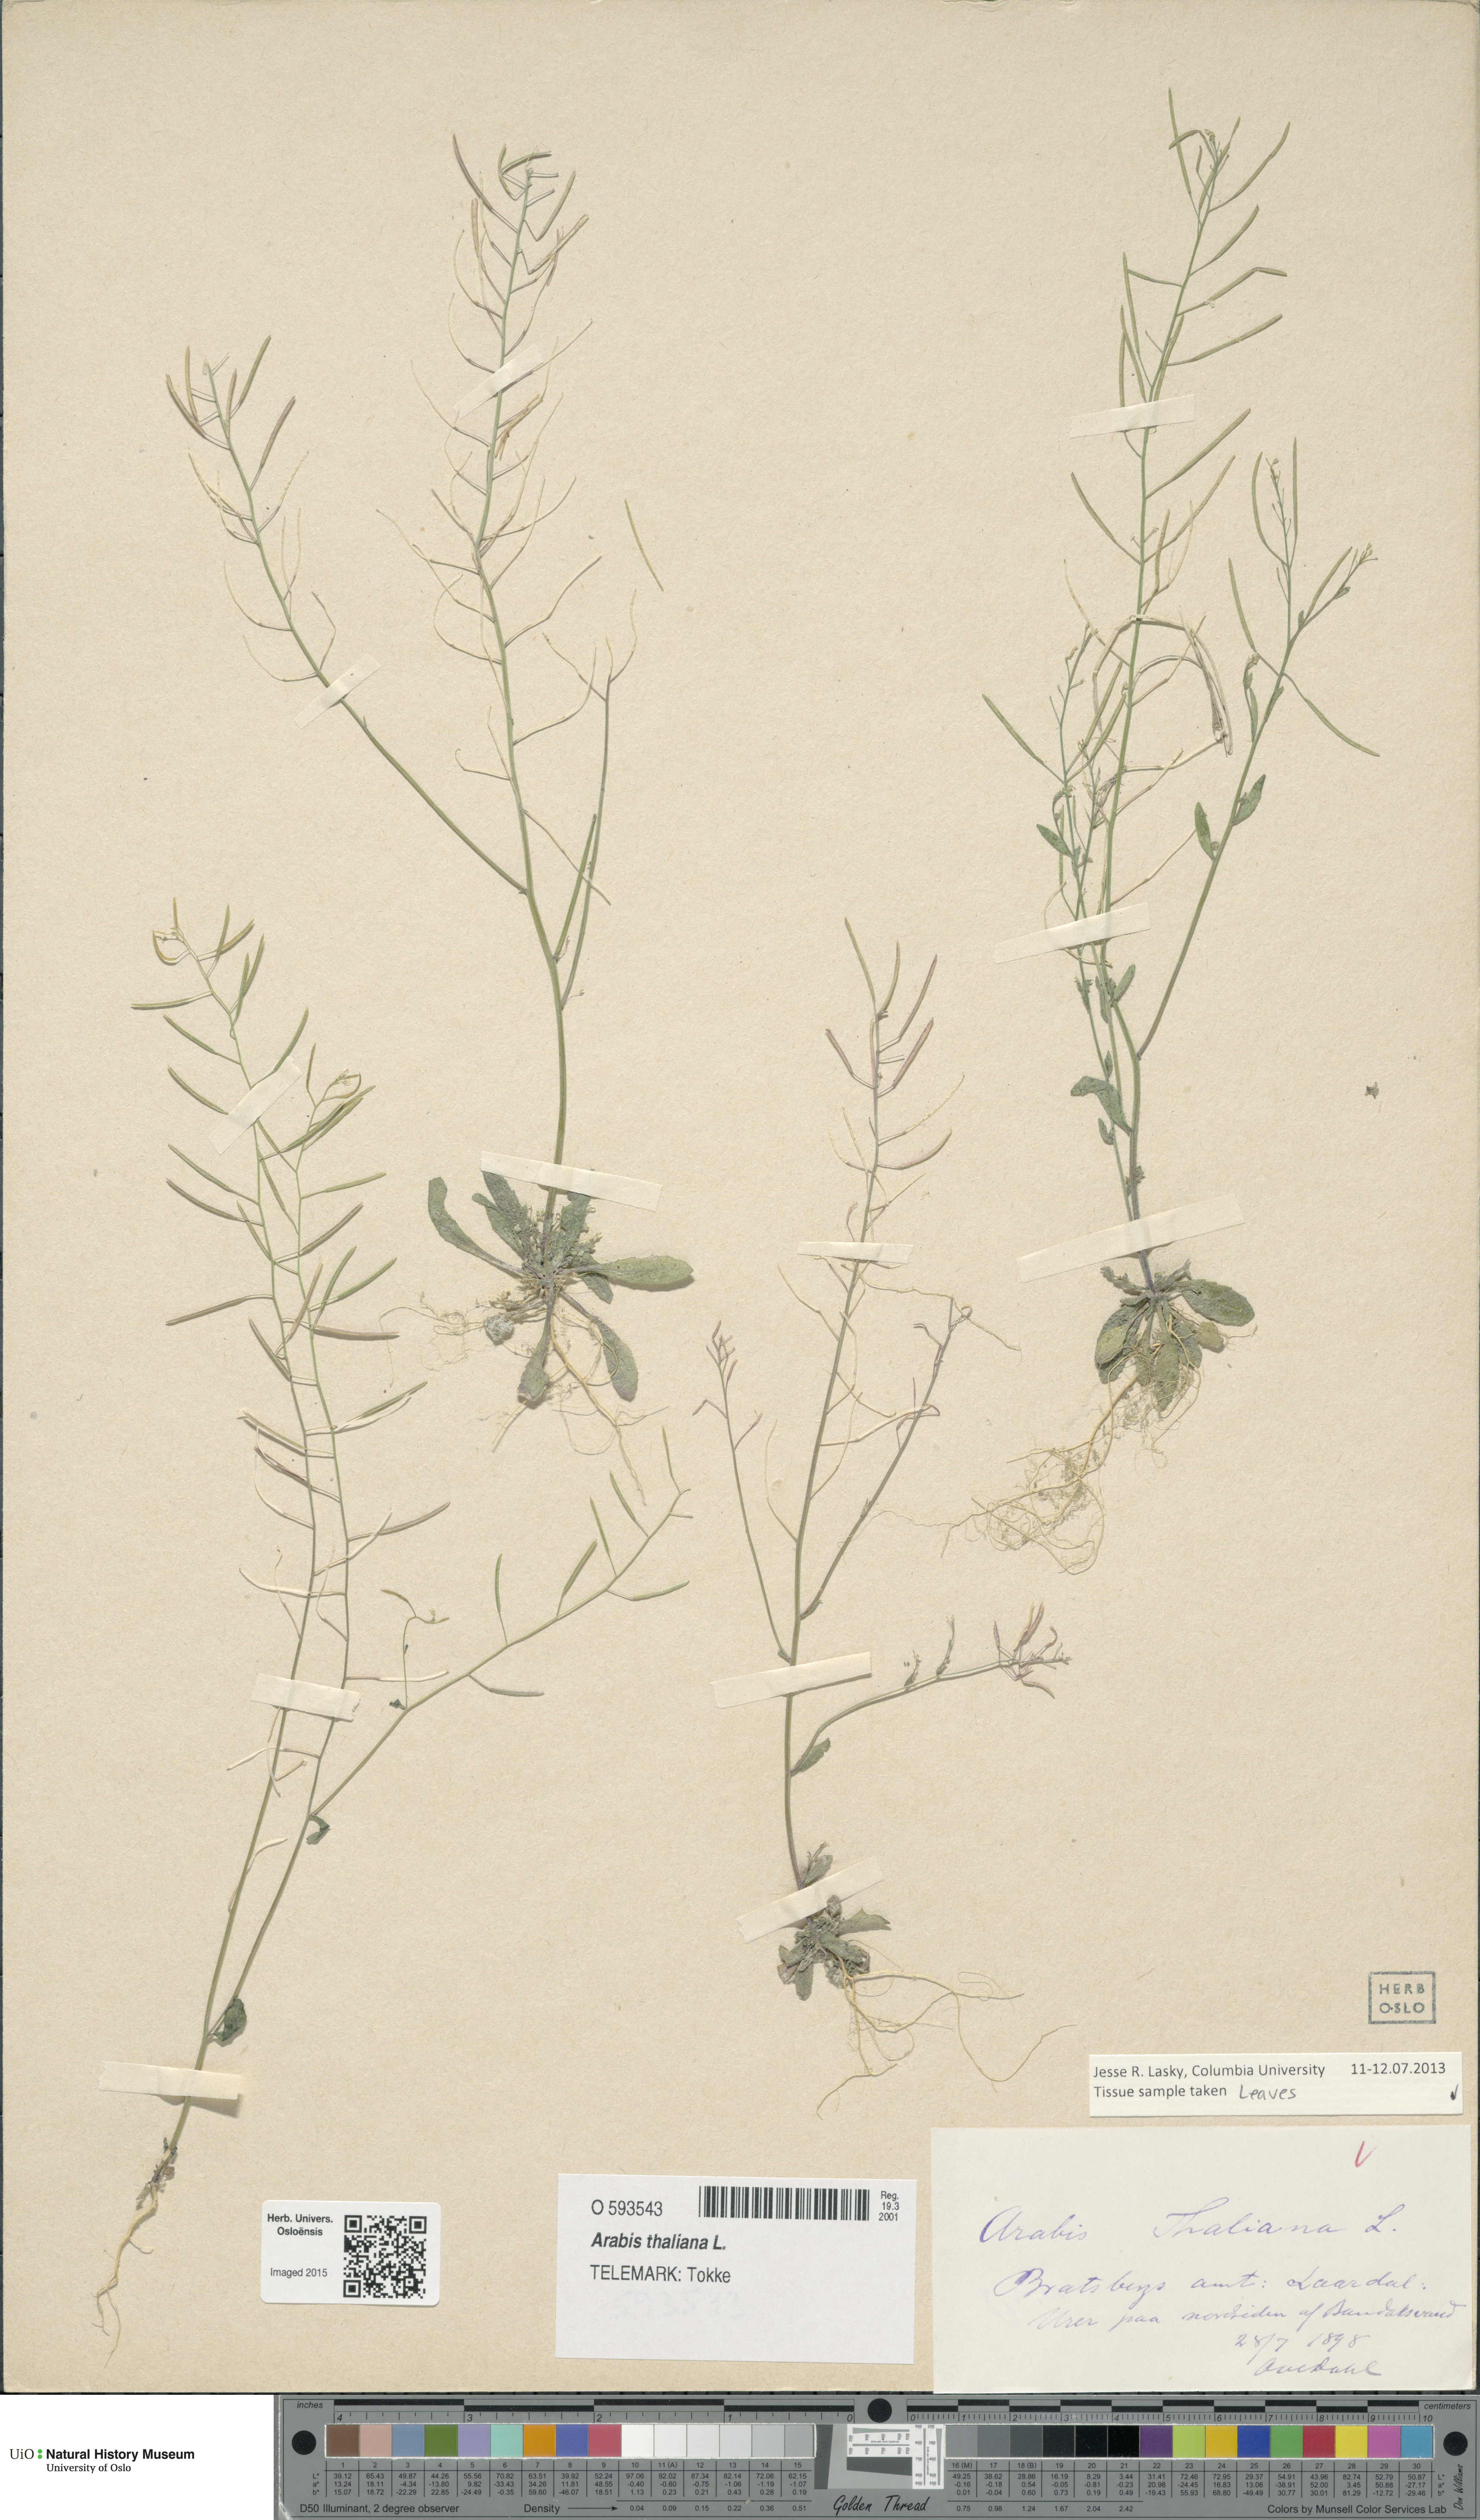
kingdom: Plantae
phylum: Tracheophyta
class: Magnoliopsida
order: Brassicales
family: Brassicaceae
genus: Arabidopsis
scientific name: Arabidopsis thaliana
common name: Thale cress
